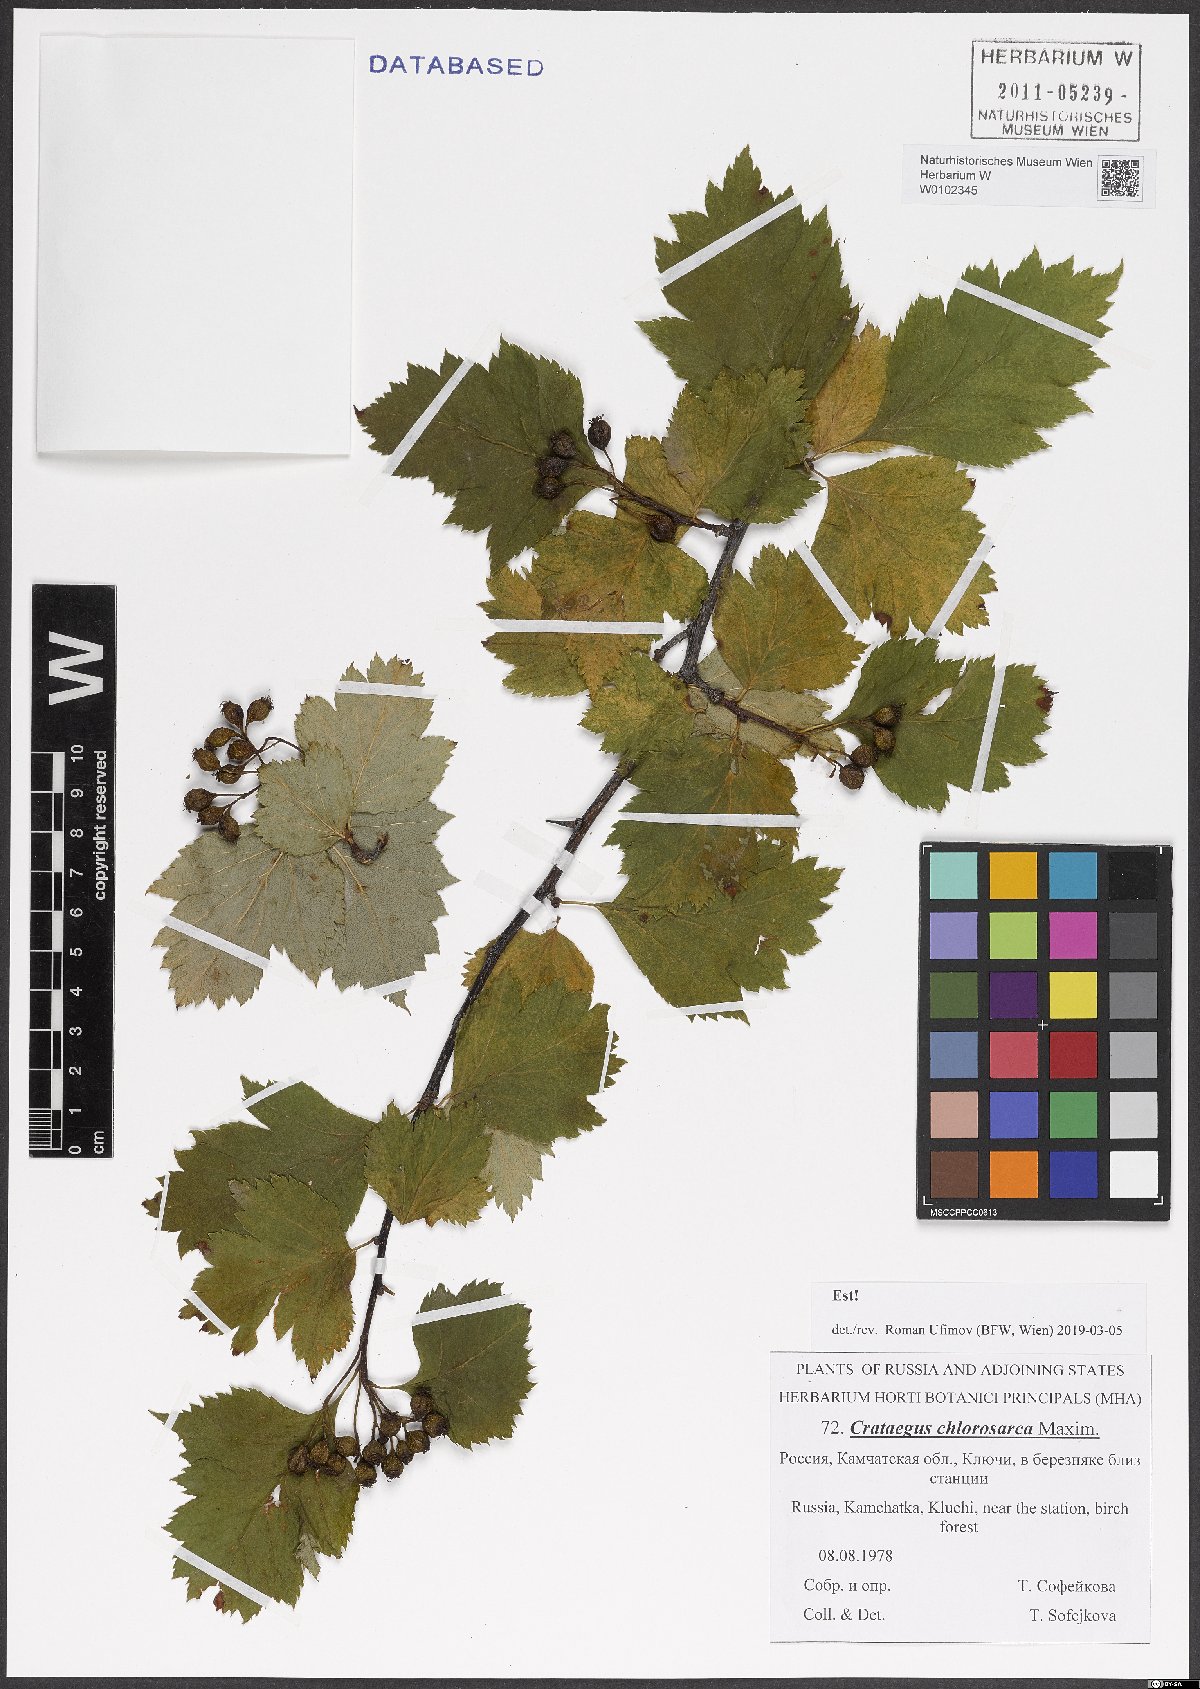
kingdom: Plantae
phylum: Tracheophyta
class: Magnoliopsida
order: Rosales
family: Rosaceae
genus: Crataegus
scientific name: Crataegus chlorosarca
